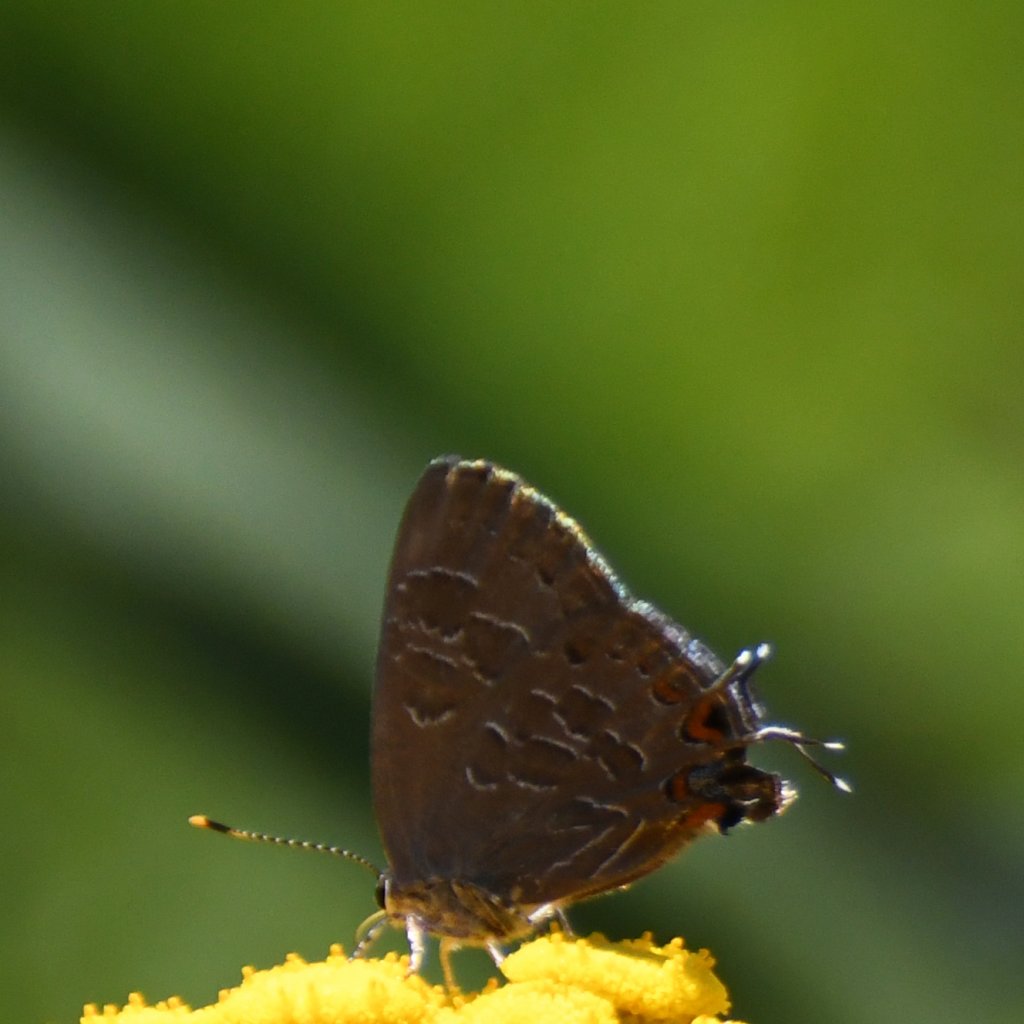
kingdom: Animalia
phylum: Arthropoda
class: Insecta
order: Lepidoptera
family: Lycaenidae
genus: Satyrium
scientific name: Satyrium liparops
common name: Striped Hairstreak
